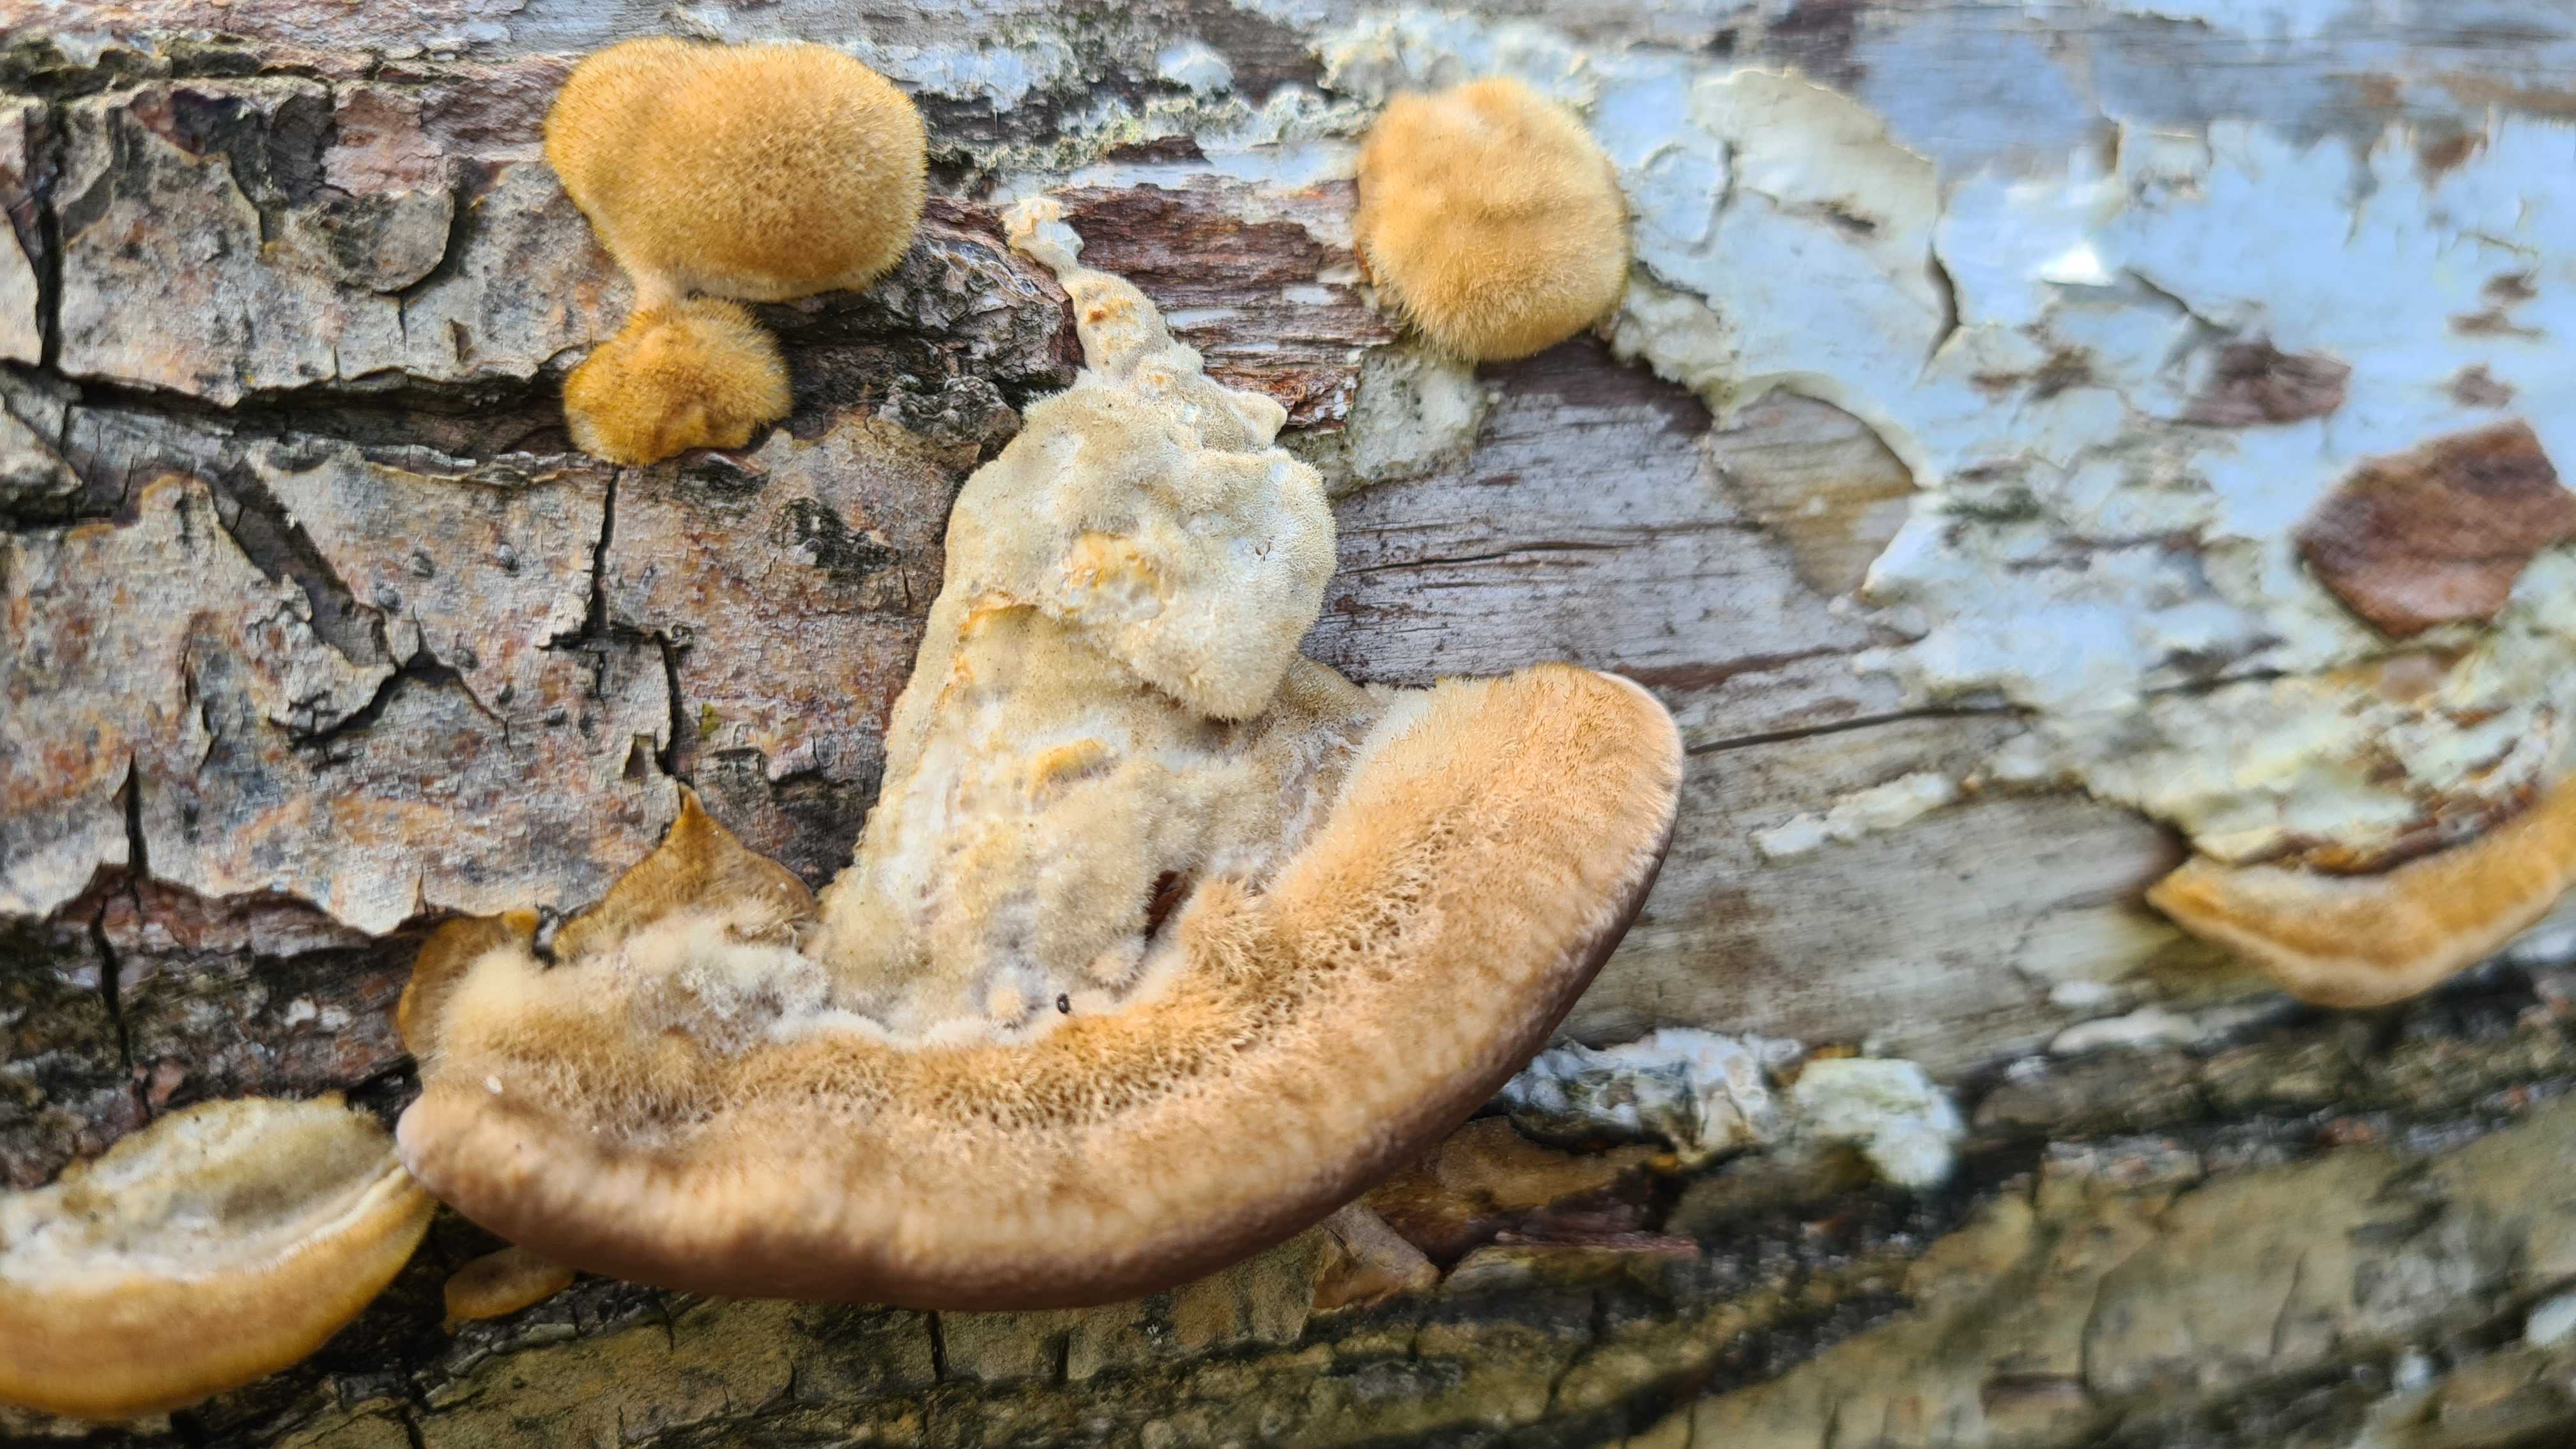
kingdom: Fungi
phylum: Basidiomycota
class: Agaricomycetes
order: Polyporales
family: Polyporaceae
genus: Trametes
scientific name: Trametes hirsuta
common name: håret læderporesvamp
